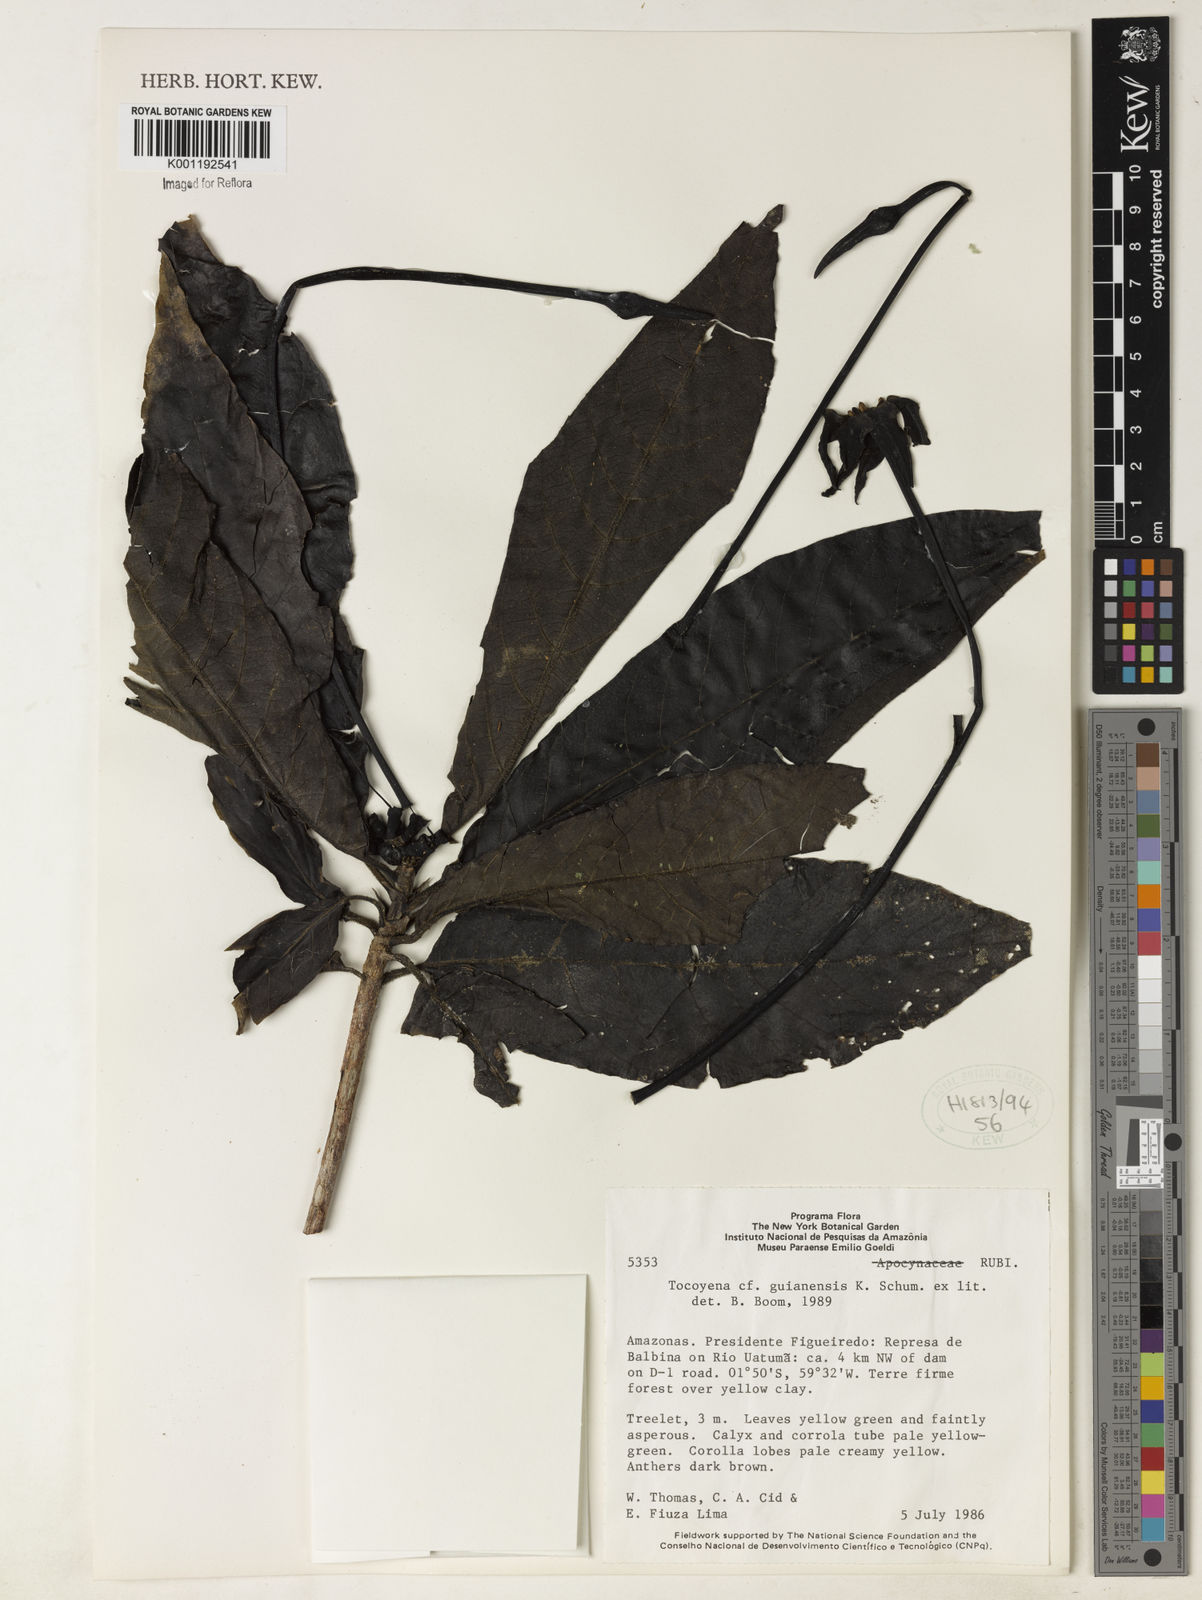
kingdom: Plantae
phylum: Tracheophyta
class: Magnoliopsida
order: Gentianales
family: Rubiaceae
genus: Tocoyena
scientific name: Tocoyena guianensis
